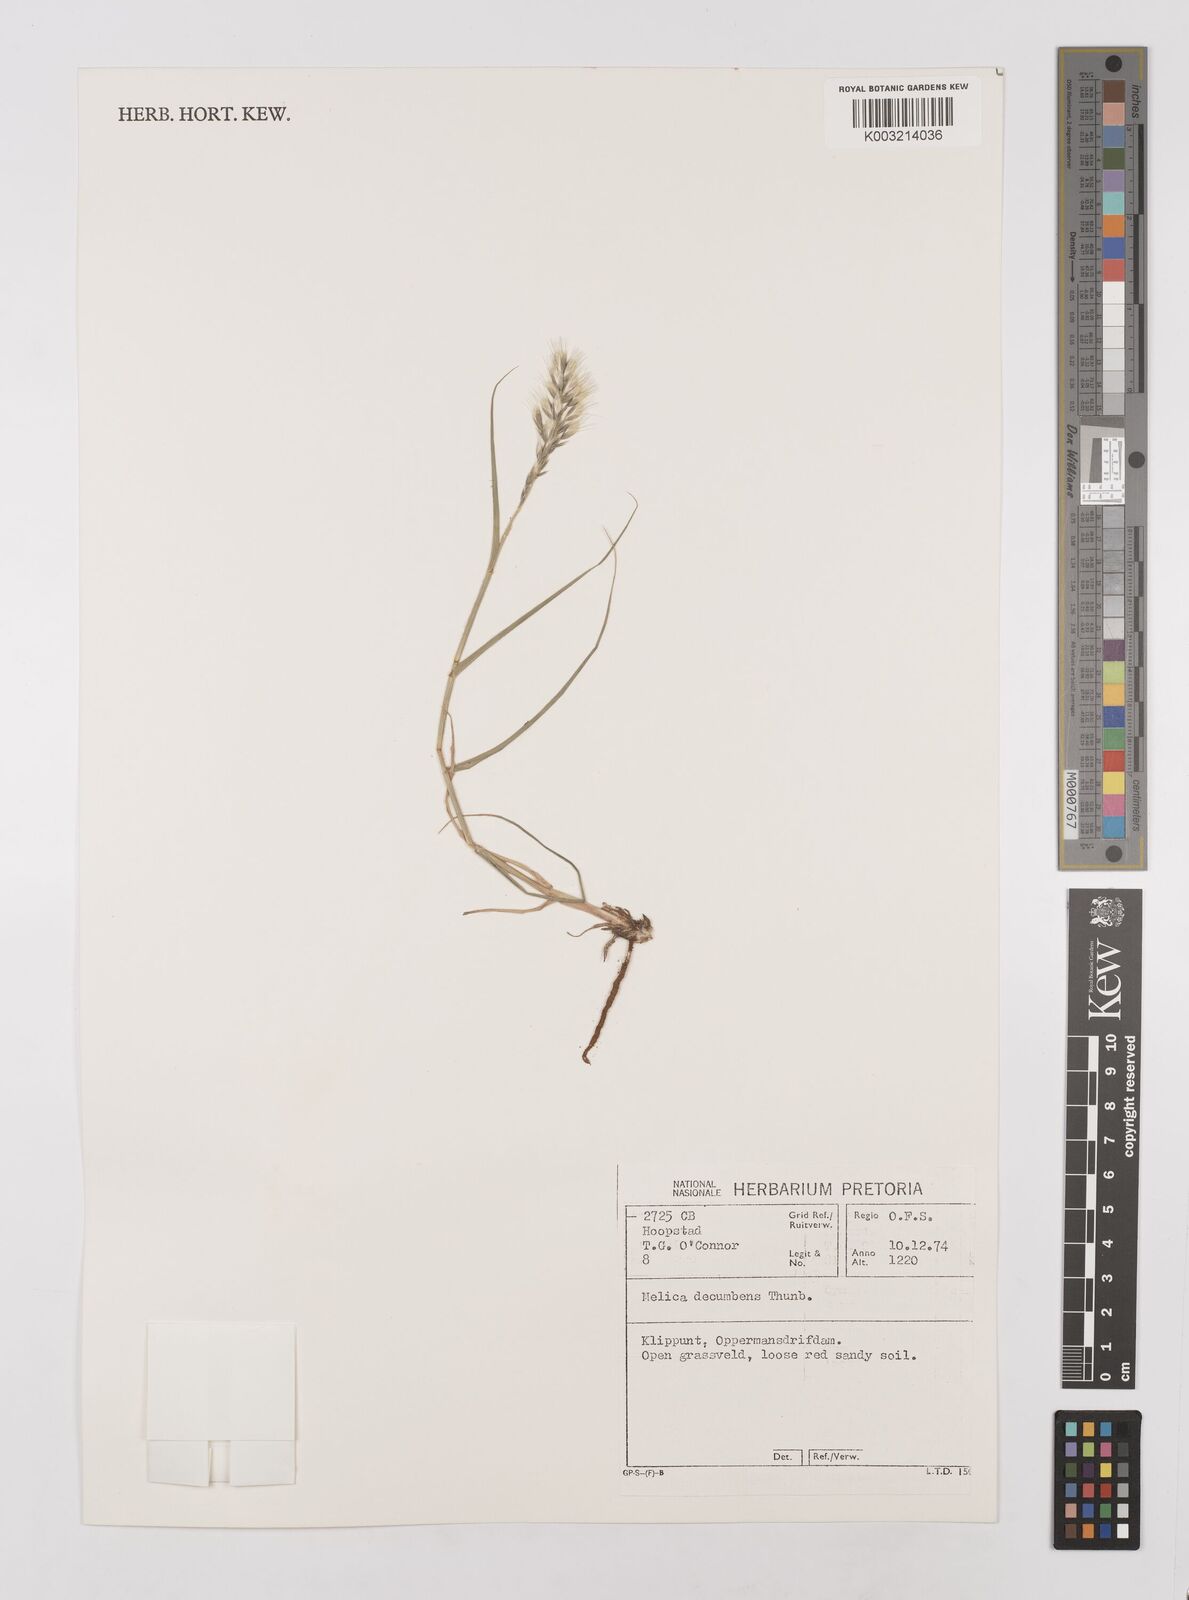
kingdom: Plantae
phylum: Tracheophyta
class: Liliopsida
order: Poales
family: Poaceae
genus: Melica
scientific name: Melica dendroides
